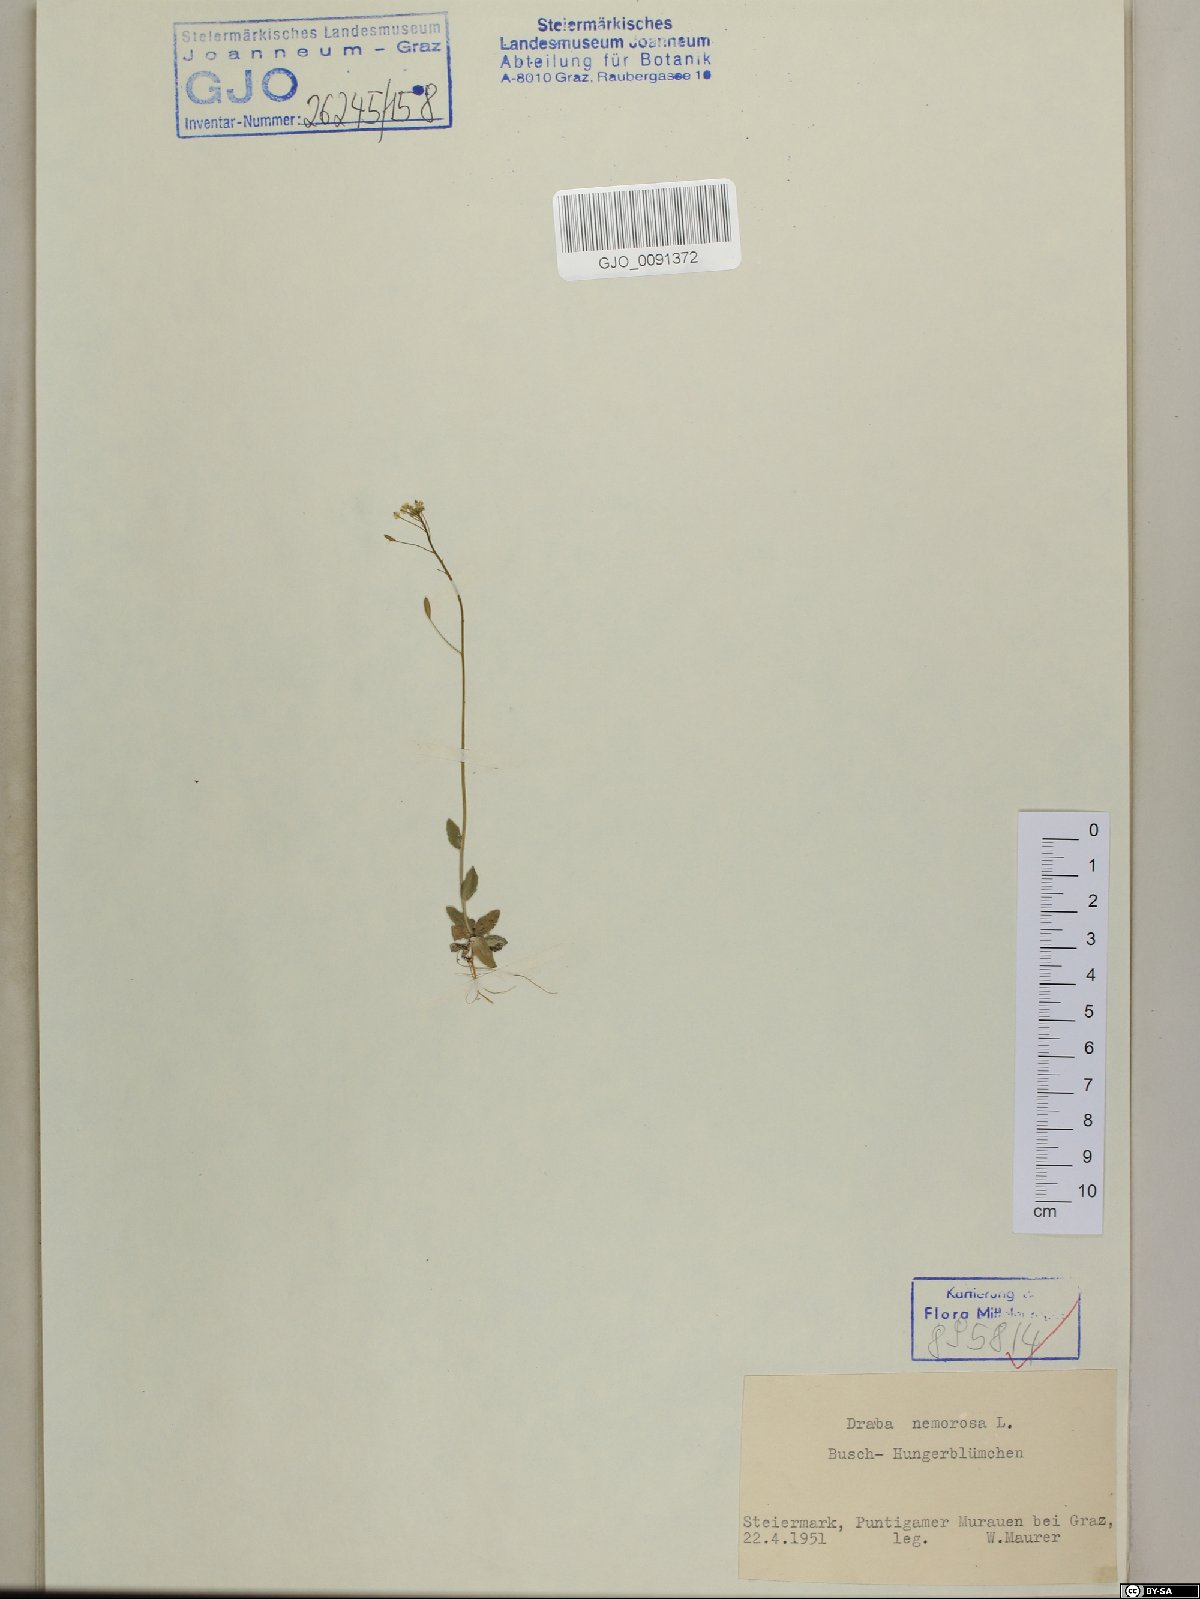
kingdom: Plantae
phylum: Tracheophyta
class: Magnoliopsida
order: Brassicales
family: Brassicaceae
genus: Draba
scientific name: Draba nemorosa
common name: Wood whitlow-grass
